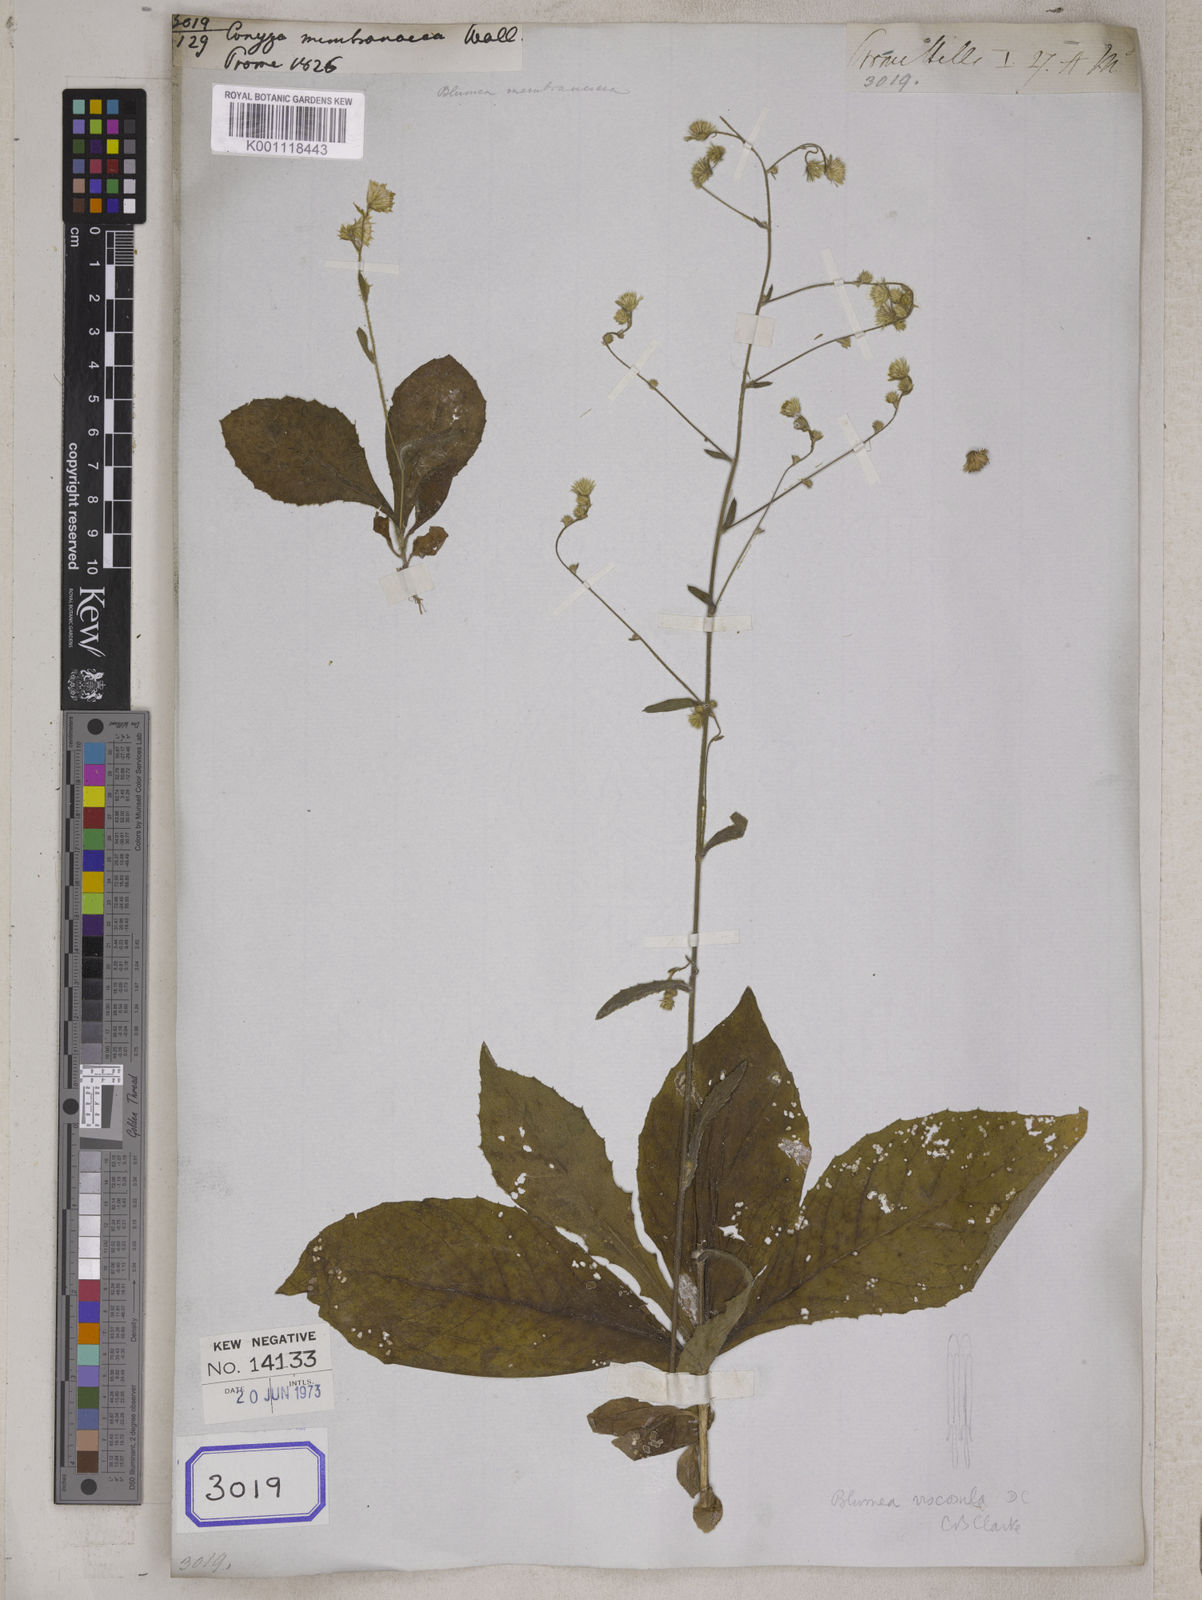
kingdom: Plantae
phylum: Tracheophyta
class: Magnoliopsida
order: Asterales
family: Asteraceae
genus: Conyza
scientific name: Conyza
